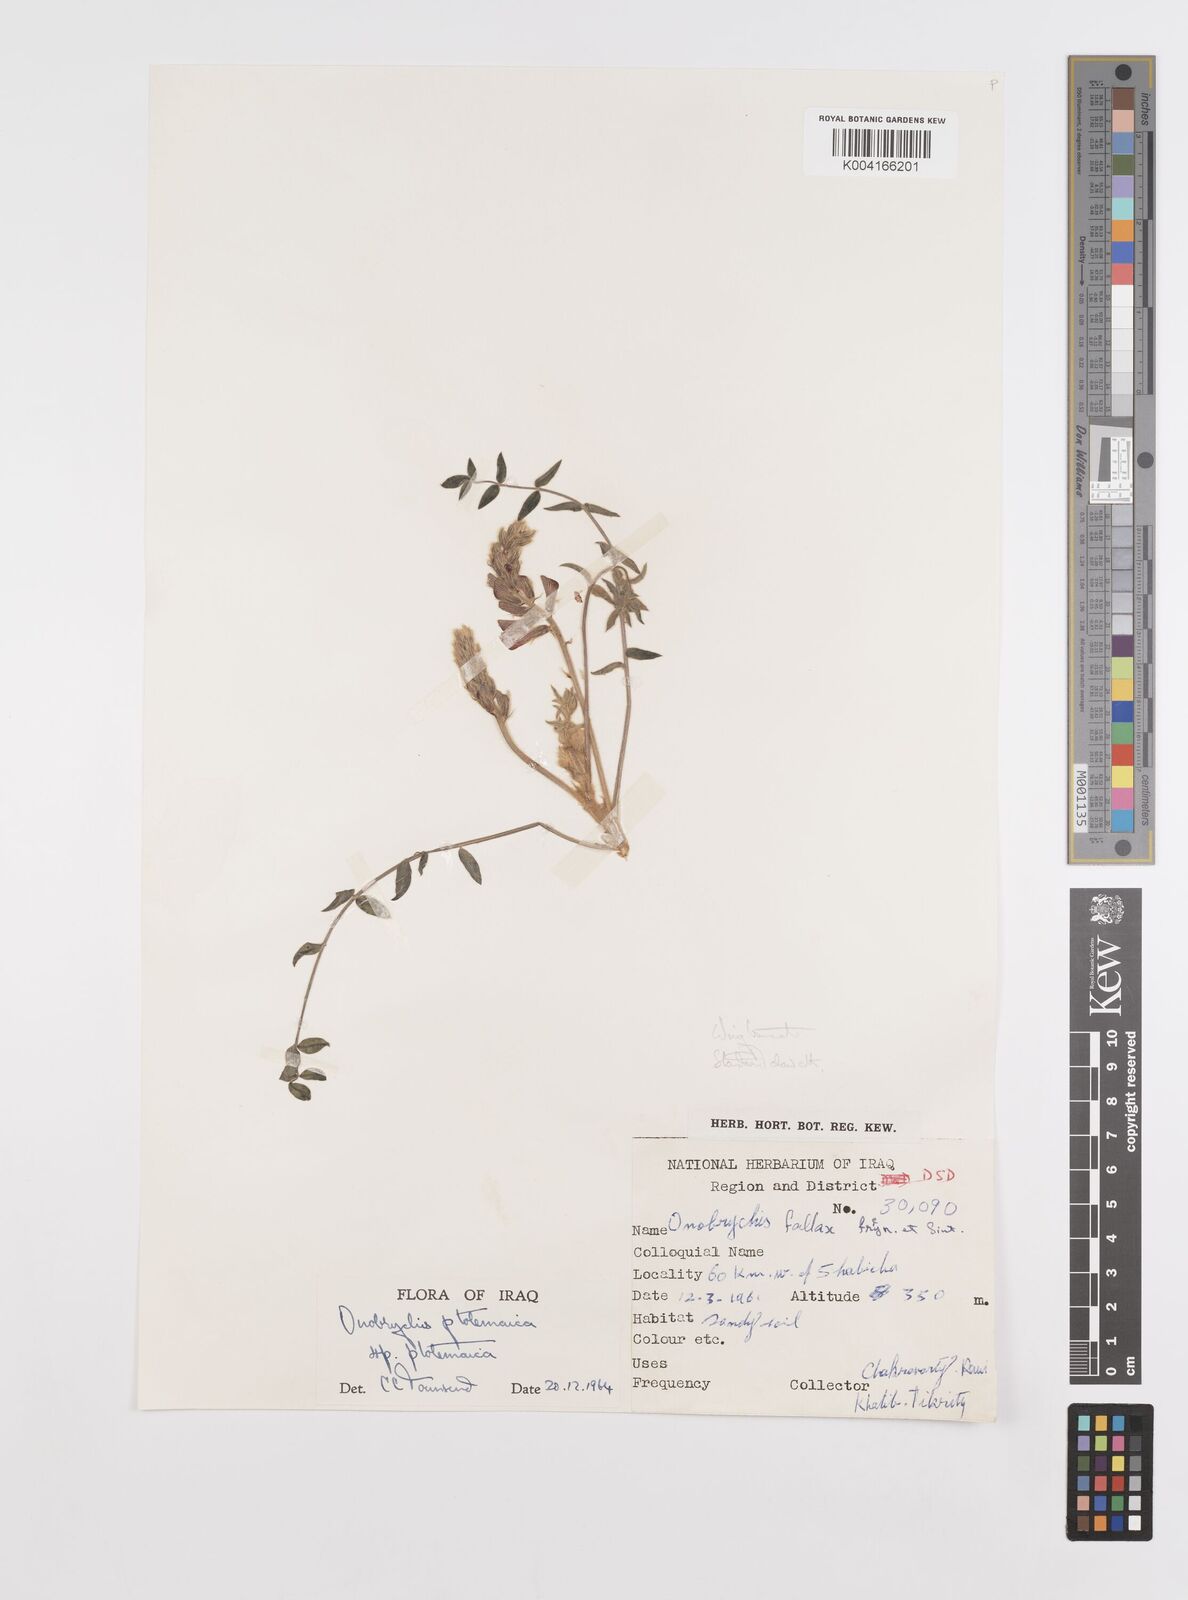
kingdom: Plantae
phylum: Tracheophyta
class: Magnoliopsida
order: Fabales
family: Fabaceae
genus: Onobrychis
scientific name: Onobrychis ptolemaica
